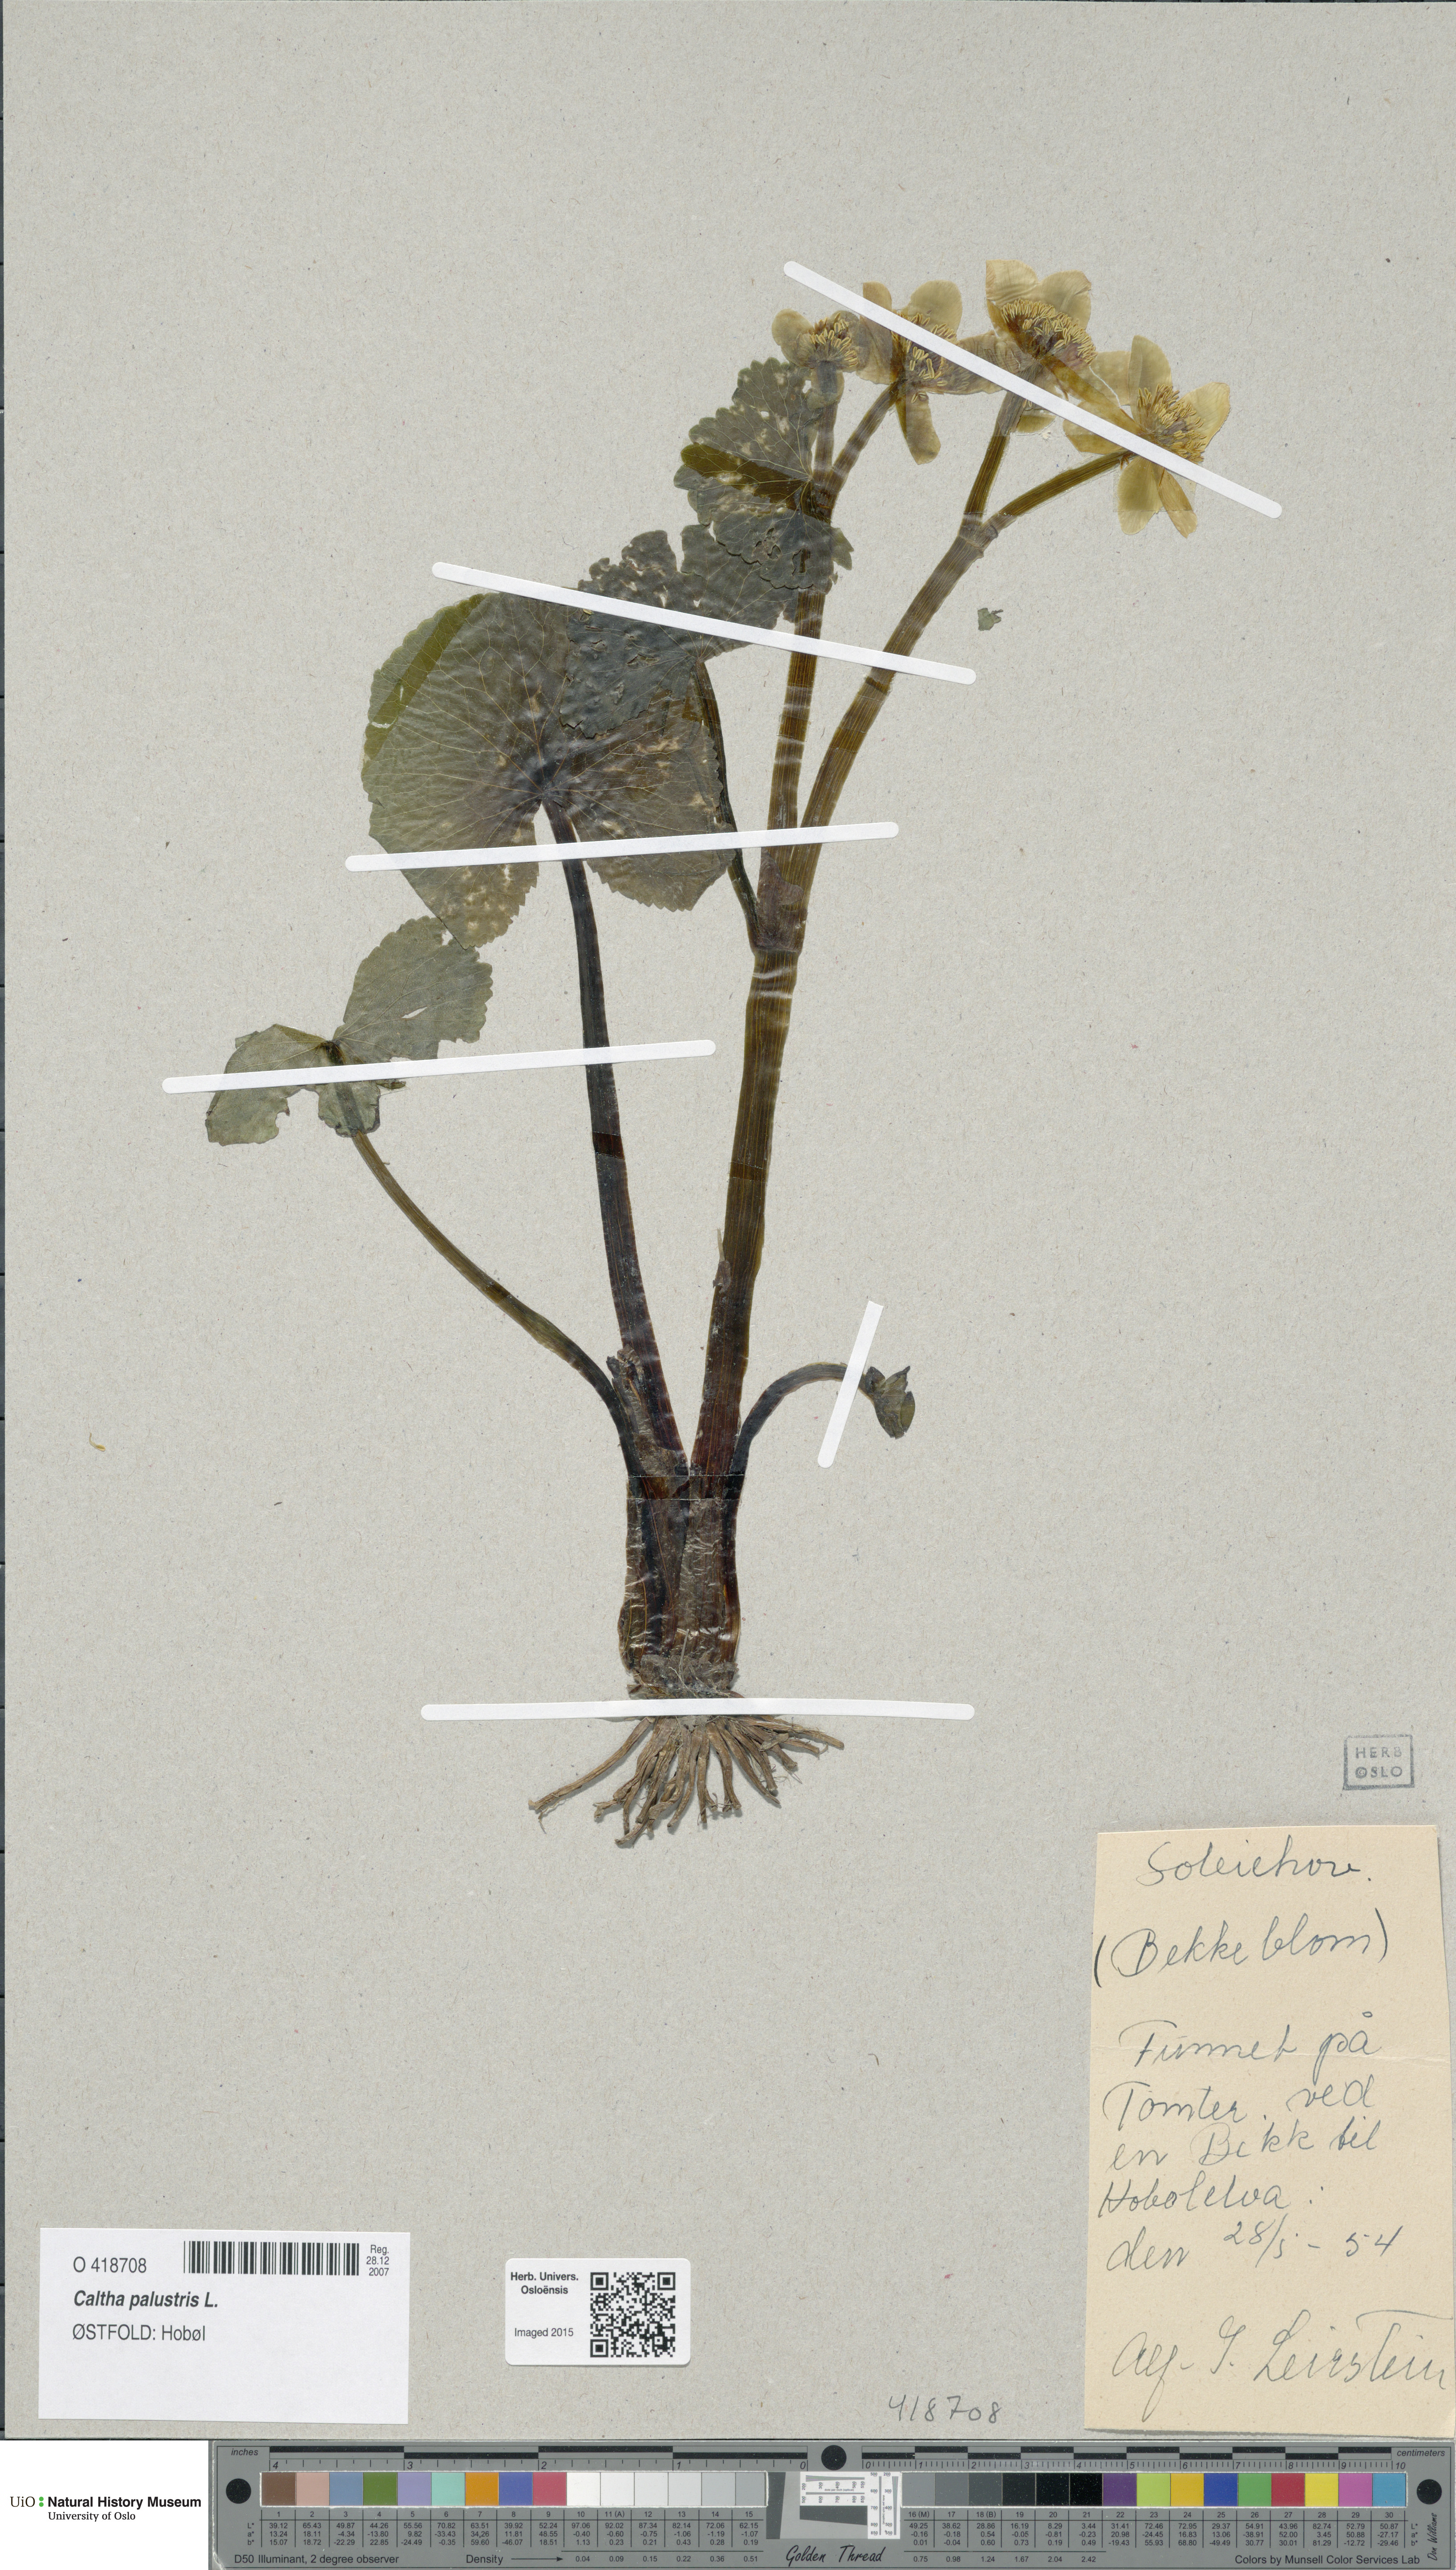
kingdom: Plantae
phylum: Tracheophyta
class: Magnoliopsida
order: Ranunculales
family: Ranunculaceae
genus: Caltha
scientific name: Caltha palustris
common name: Marsh marigold
